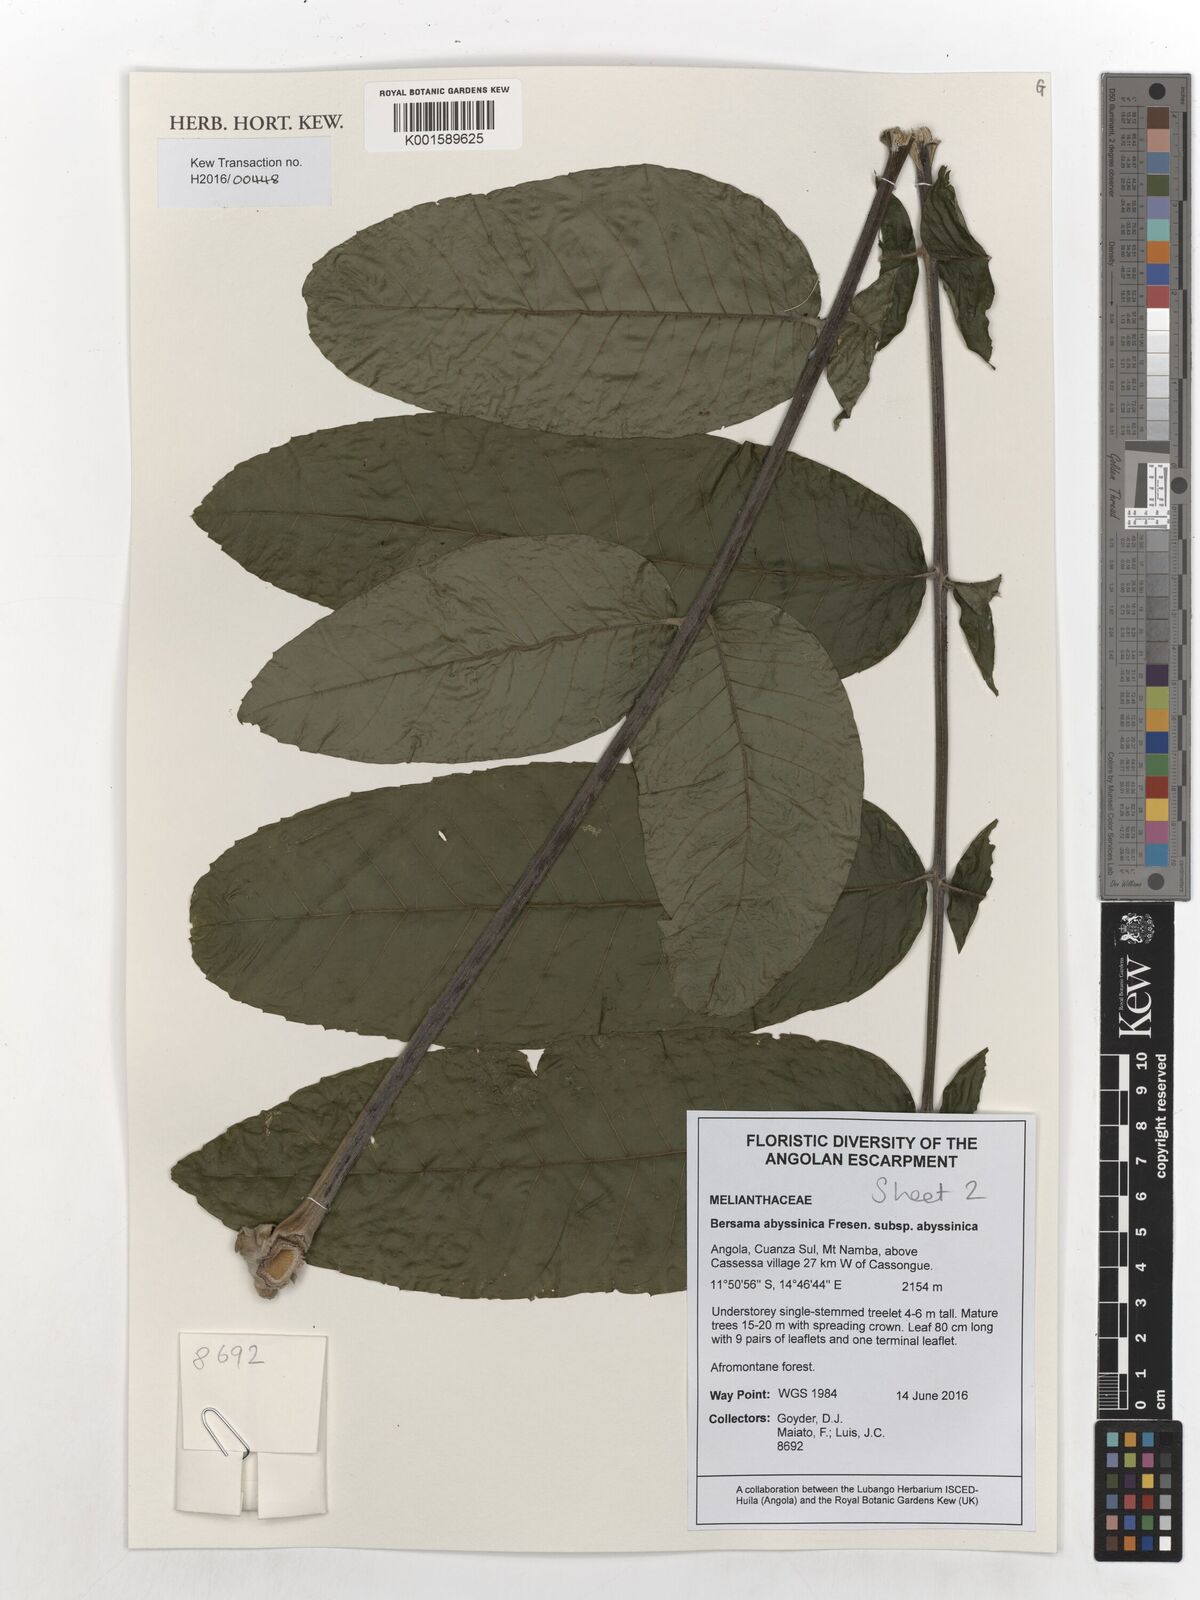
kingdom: Plantae
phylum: Tracheophyta
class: Magnoliopsida
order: Geraniales
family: Melianthaceae
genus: Bersama
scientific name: Bersama abyssinica
